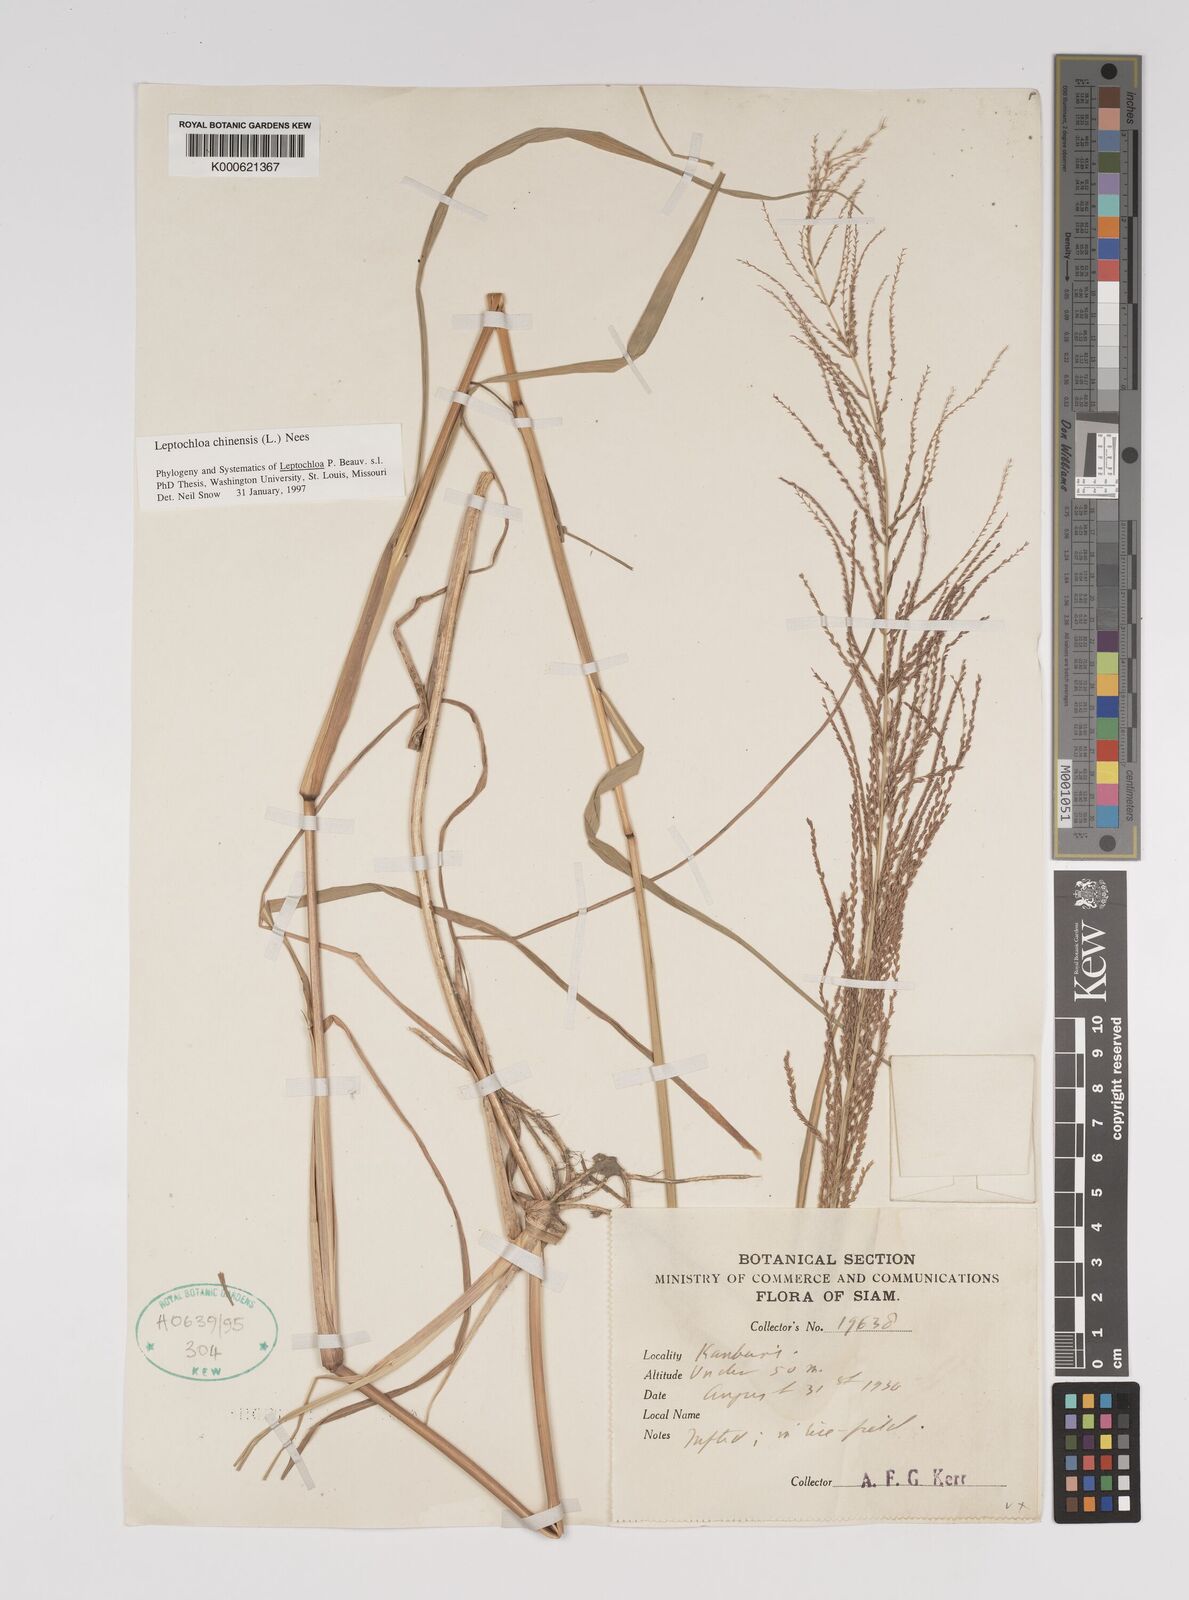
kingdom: Plantae
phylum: Tracheophyta
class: Liliopsida
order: Poales
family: Poaceae
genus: Leptochloa
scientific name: Leptochloa chinensis
